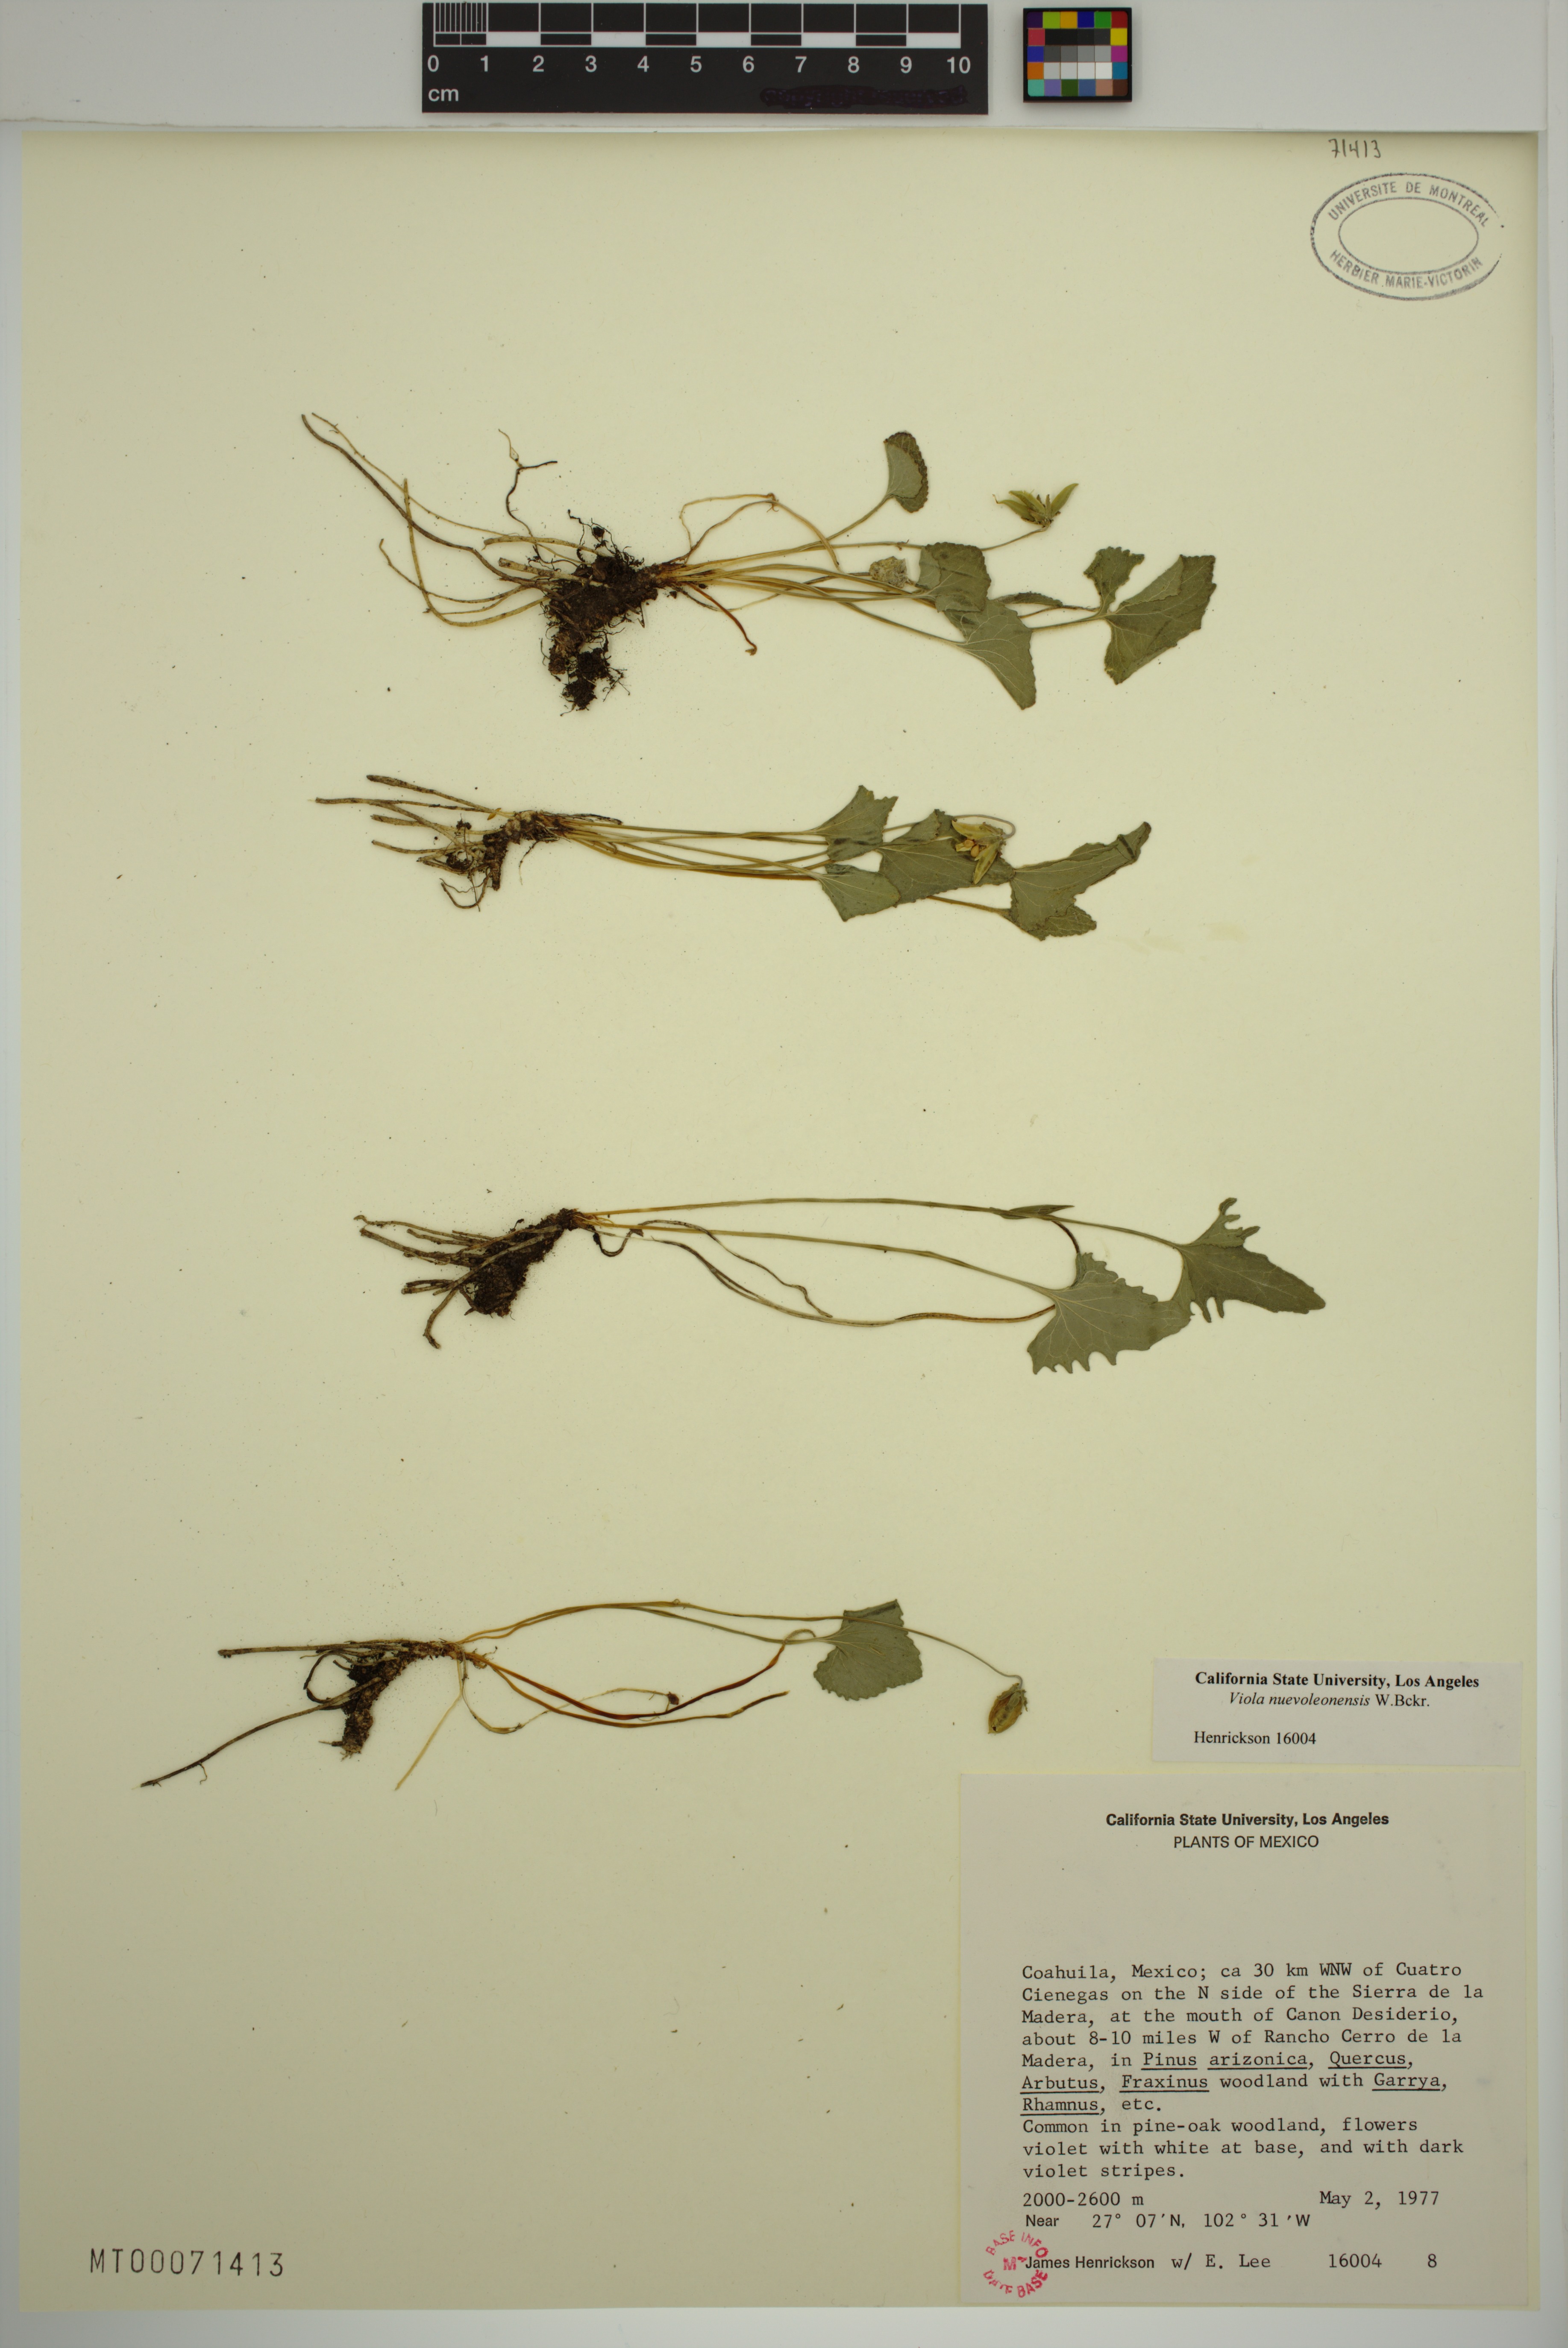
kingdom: Plantae
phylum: Tracheophyta
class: Magnoliopsida
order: Malpighiales
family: Violaceae
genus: Viola
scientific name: Viola nuevoleonensis
